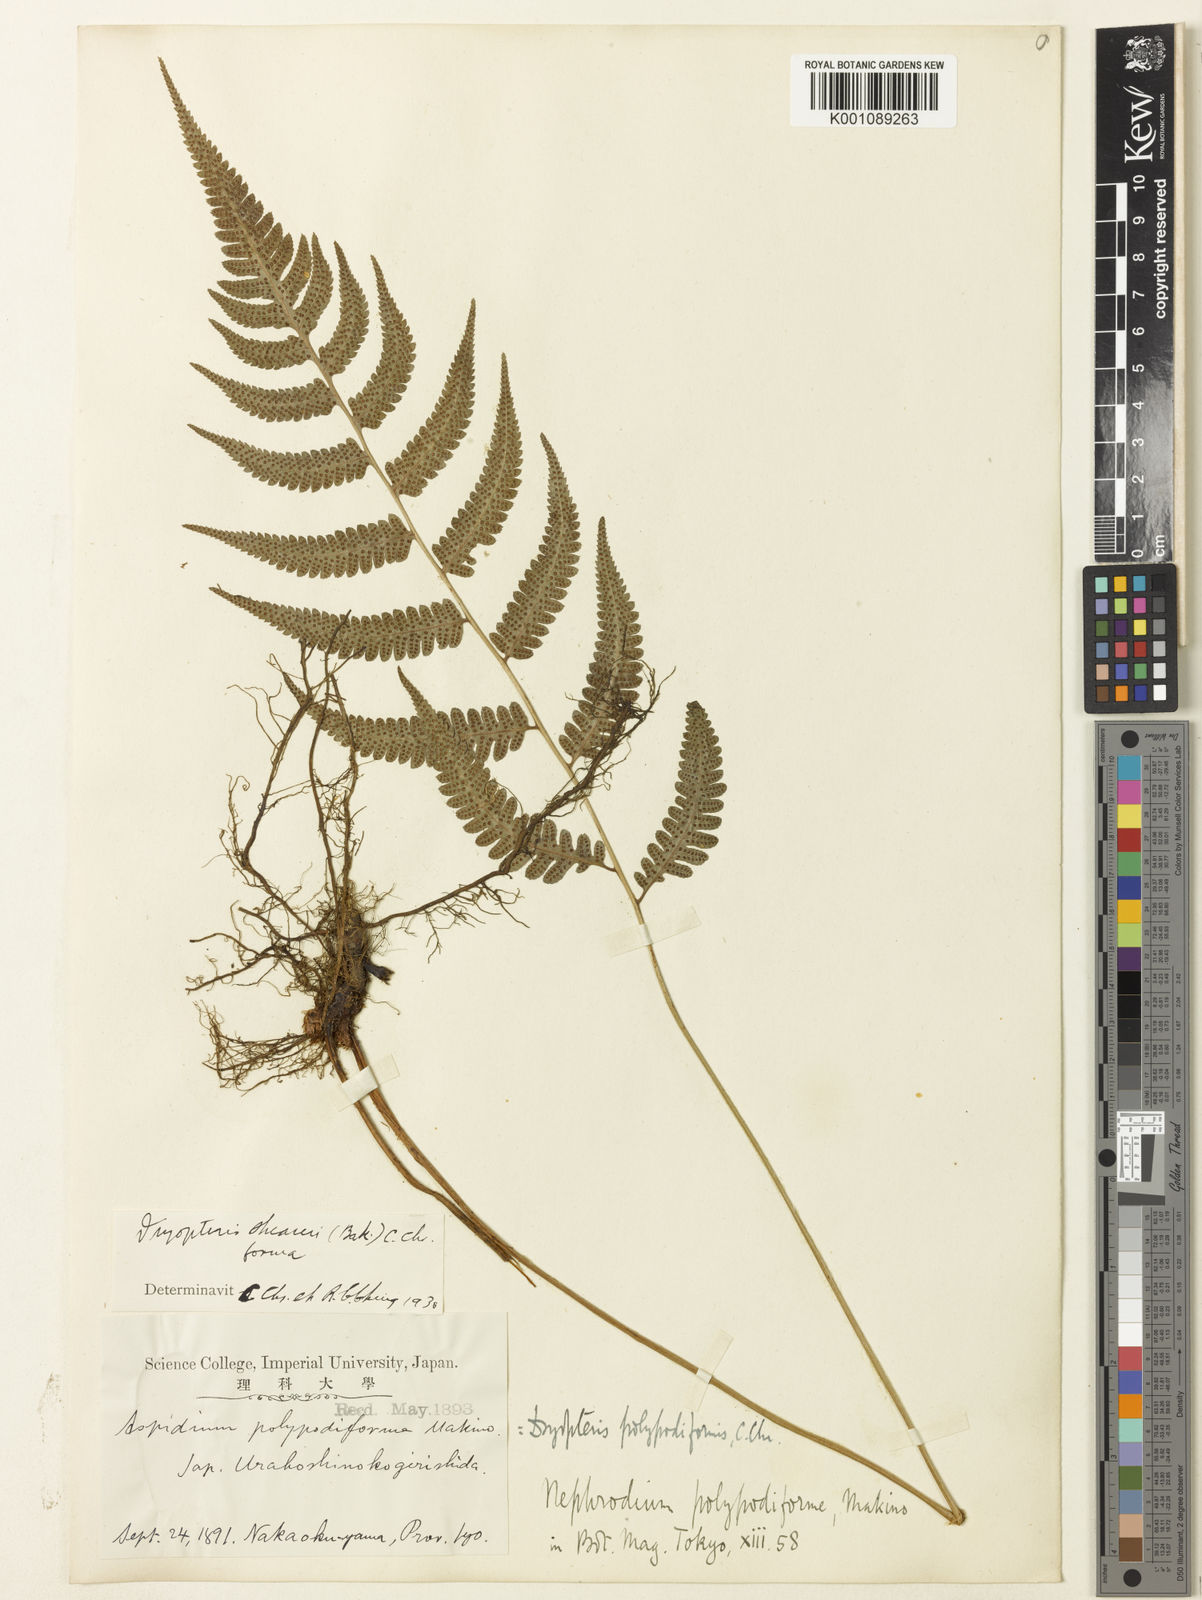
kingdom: Plantae
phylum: Tracheophyta
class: Polypodiopsida
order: Polypodiales
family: Athyriaceae
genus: Anisocampium
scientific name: Anisocampium sheareri
